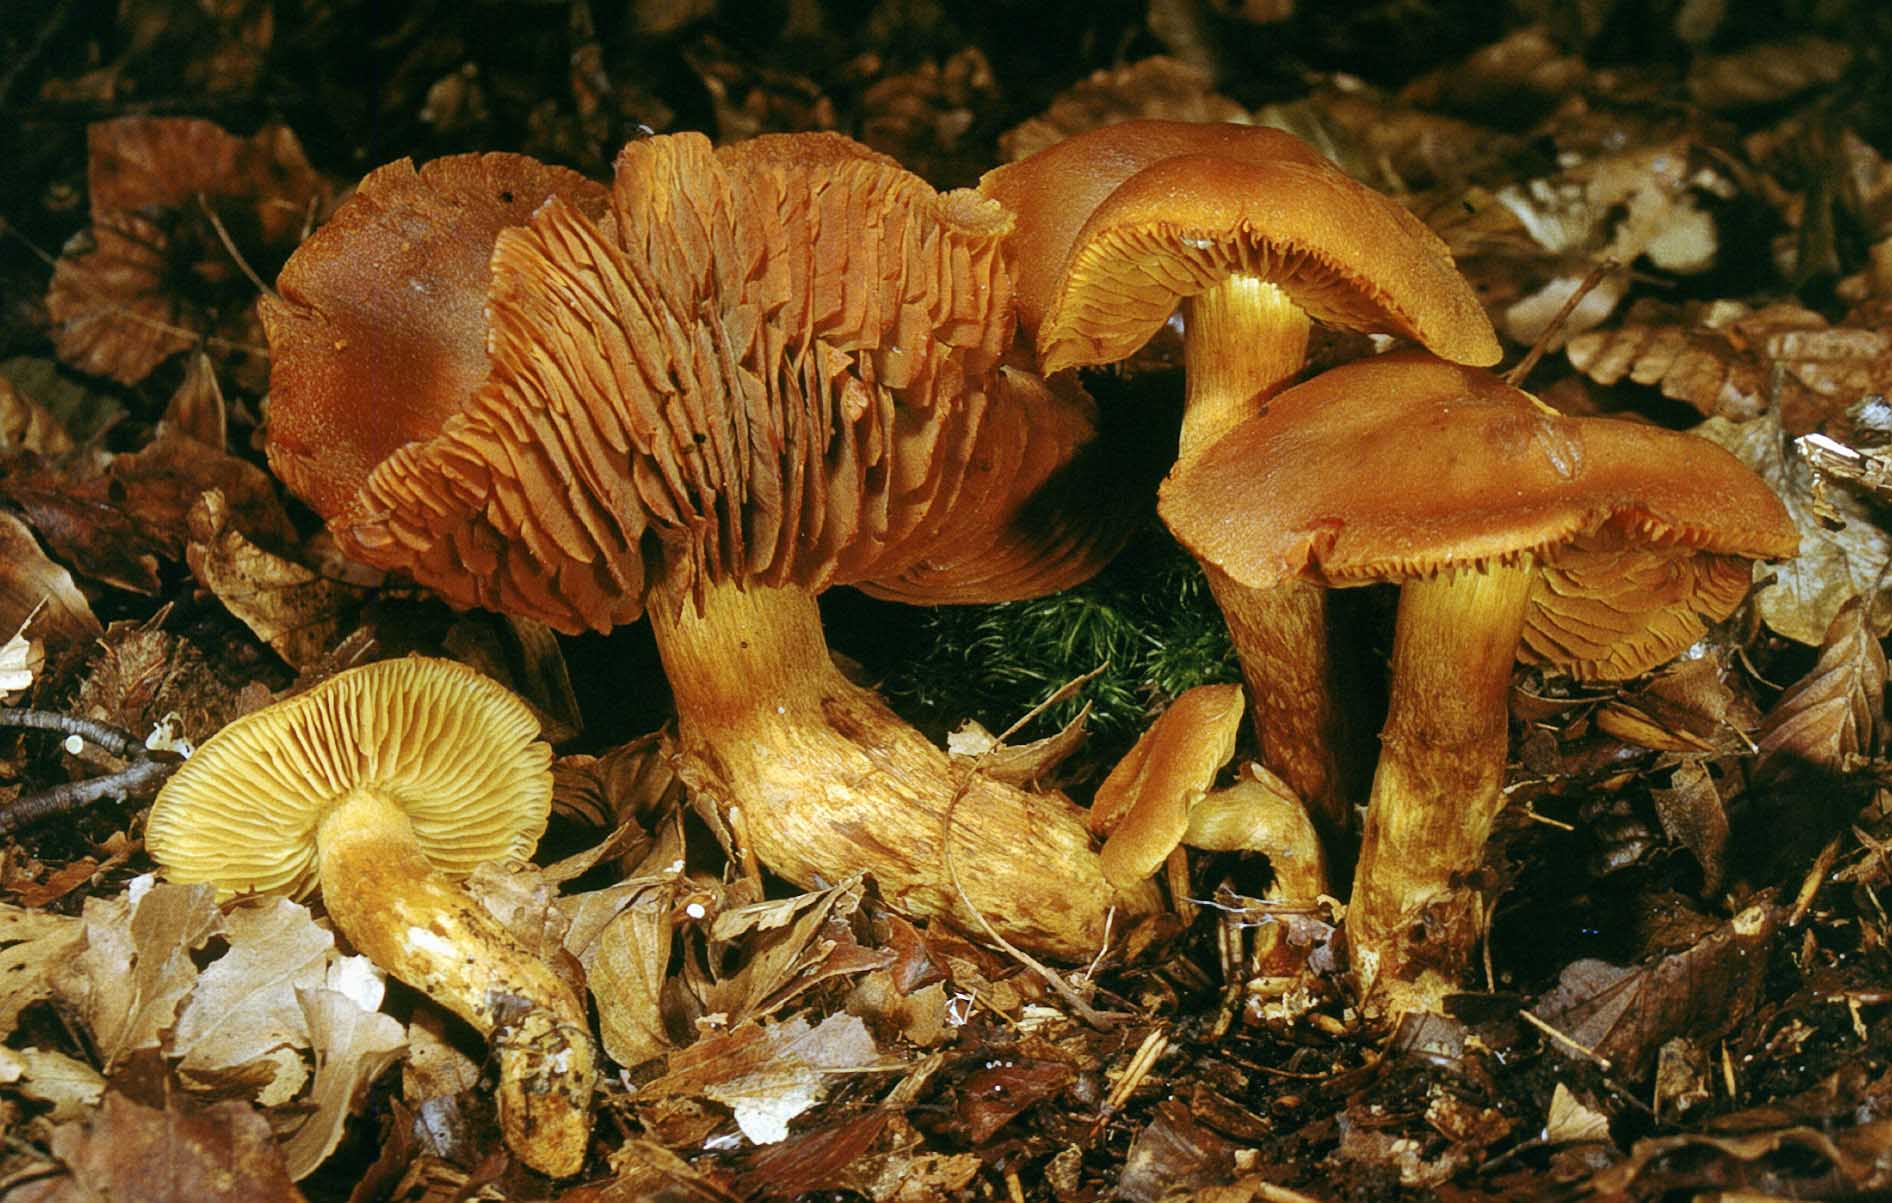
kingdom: Fungi
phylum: Basidiomycota
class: Agaricomycetes
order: Agaricales
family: Cortinariaceae
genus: Aureonarius
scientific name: Aureonarius tofaceus
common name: ravgul slørhat
